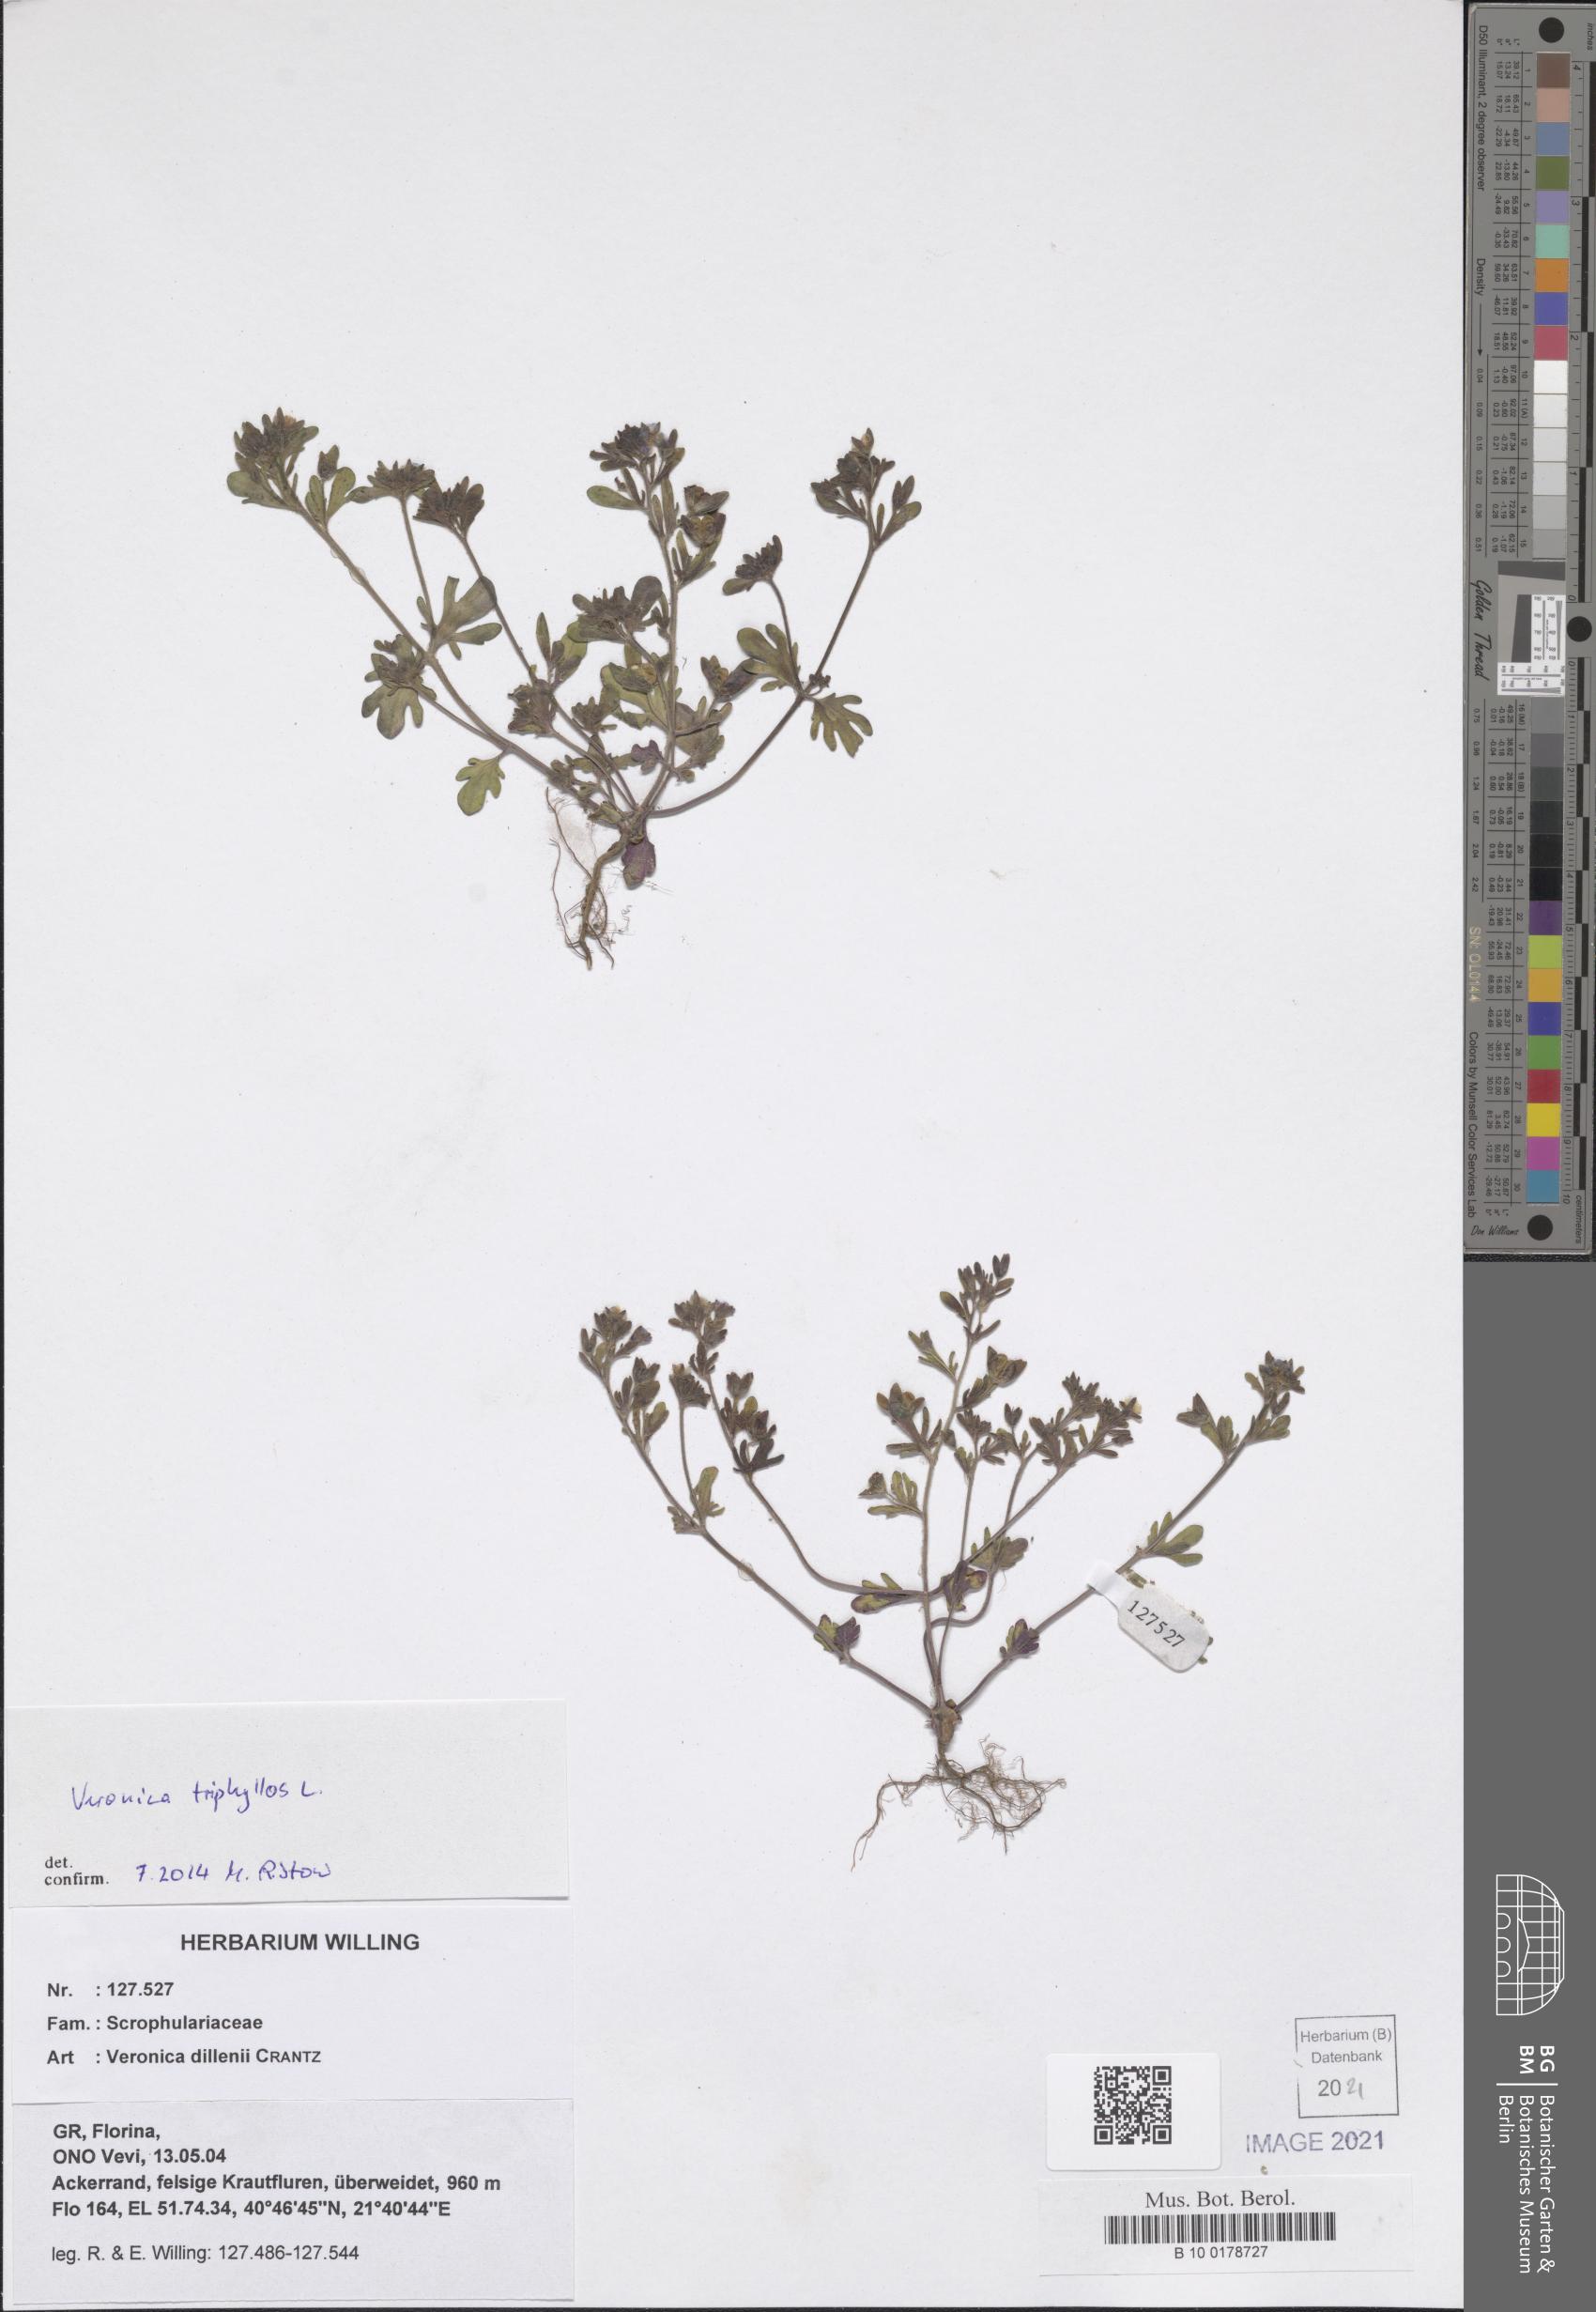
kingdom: Plantae
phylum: Tracheophyta
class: Magnoliopsida
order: Lamiales
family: Plantaginaceae
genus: Veronica
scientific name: Veronica triphyllos
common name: Fingered speedwell
